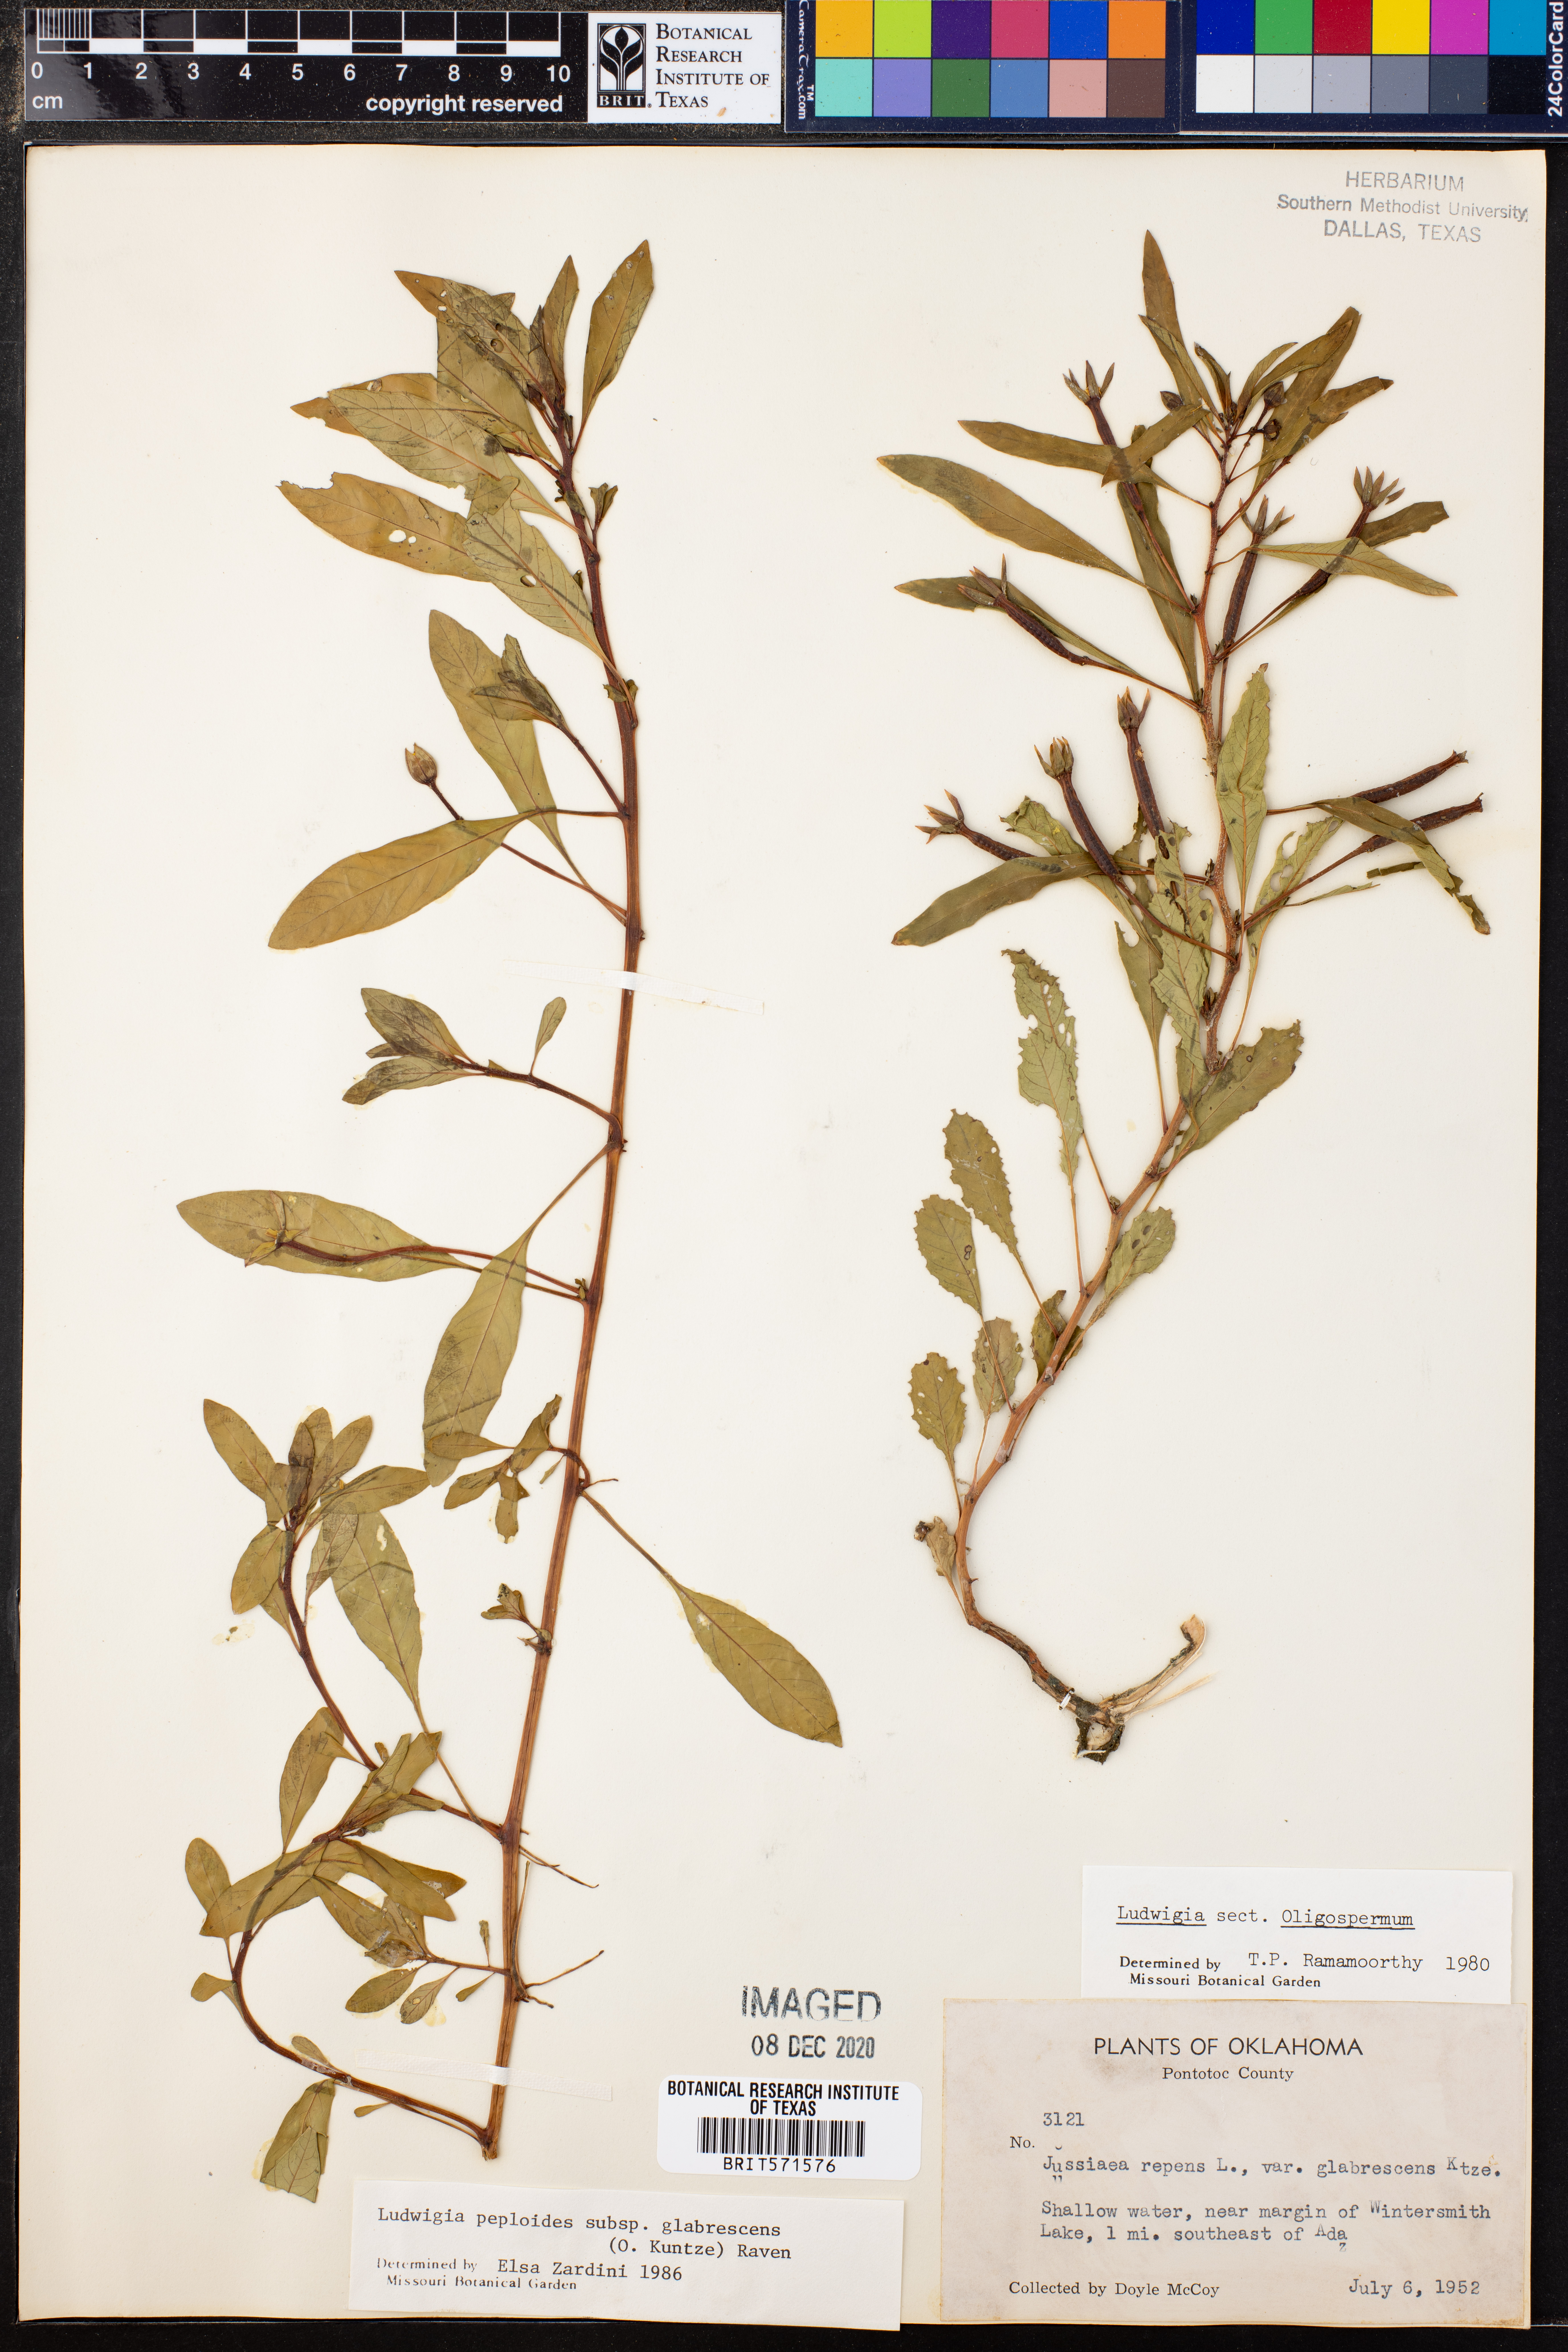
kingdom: Plantae
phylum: Tracheophyta
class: Magnoliopsida
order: Myrtales
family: Onagraceae
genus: Ludwigia
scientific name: Ludwigia peploides
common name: Floating primrose-willow
